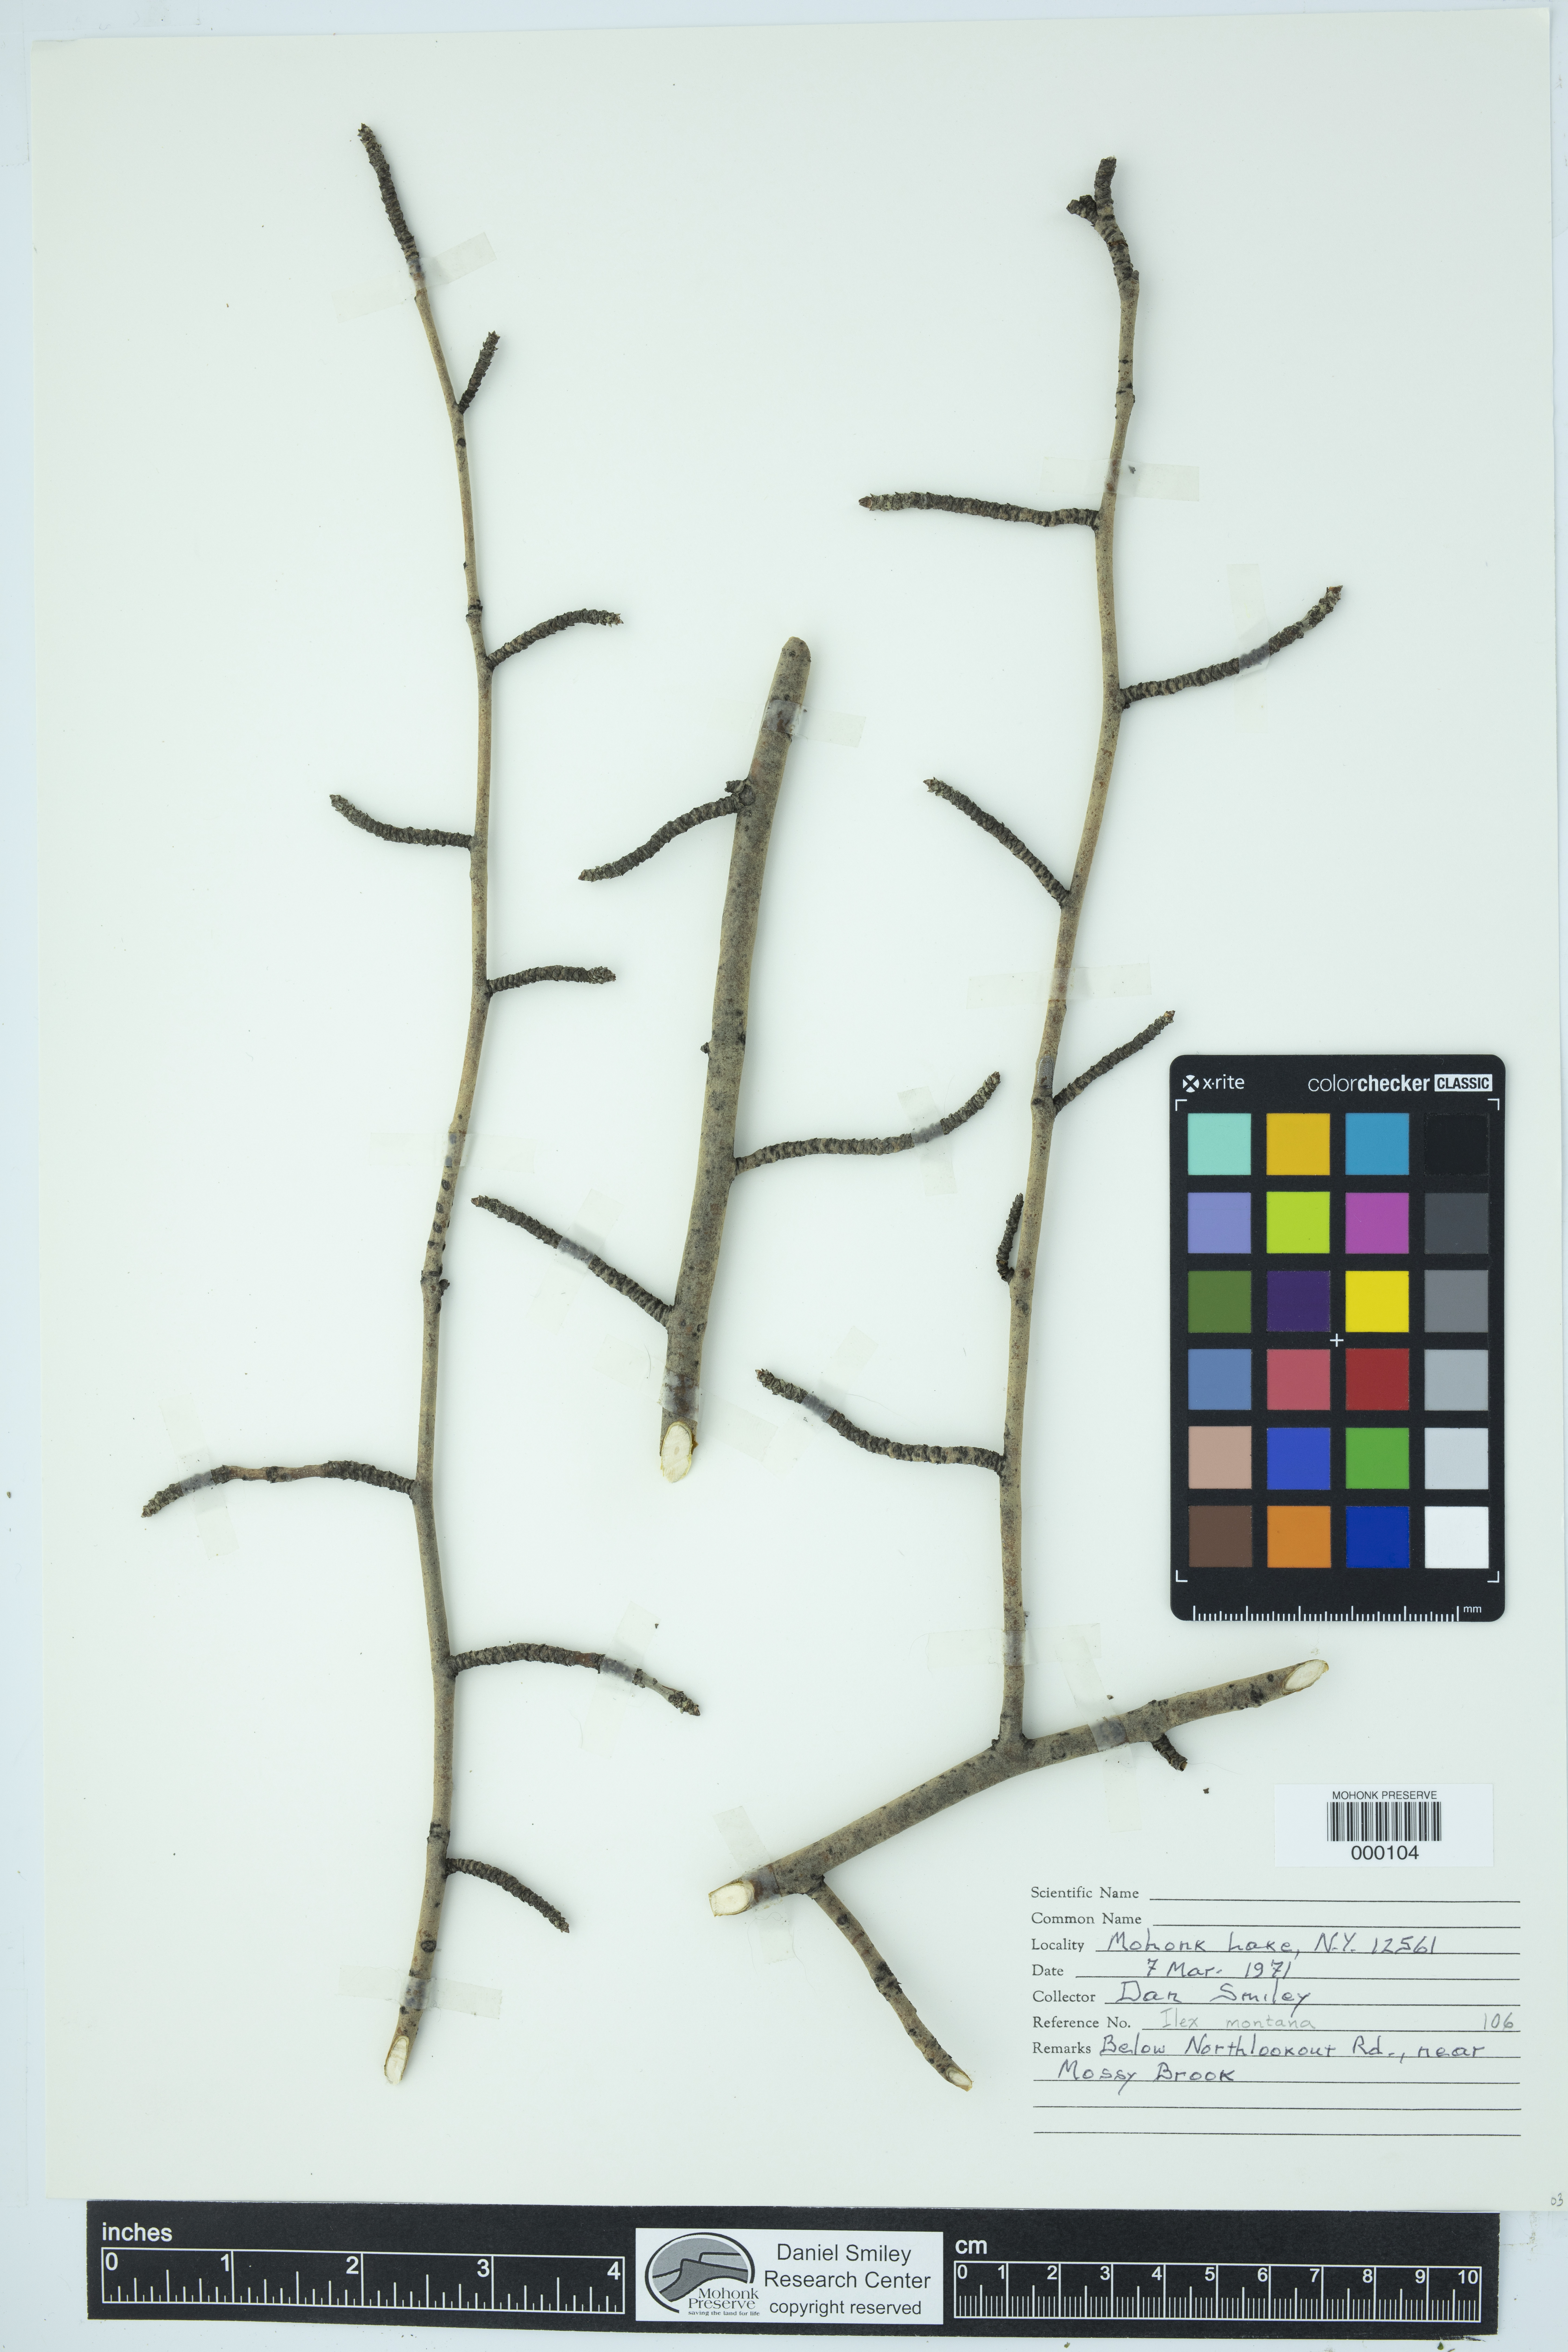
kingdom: Plantae
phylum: Tracheophyta
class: Magnoliopsida
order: Aquifoliales
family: Aquifoliaceae
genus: Ilex
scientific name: Ilex montana
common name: Mountain winterberry
